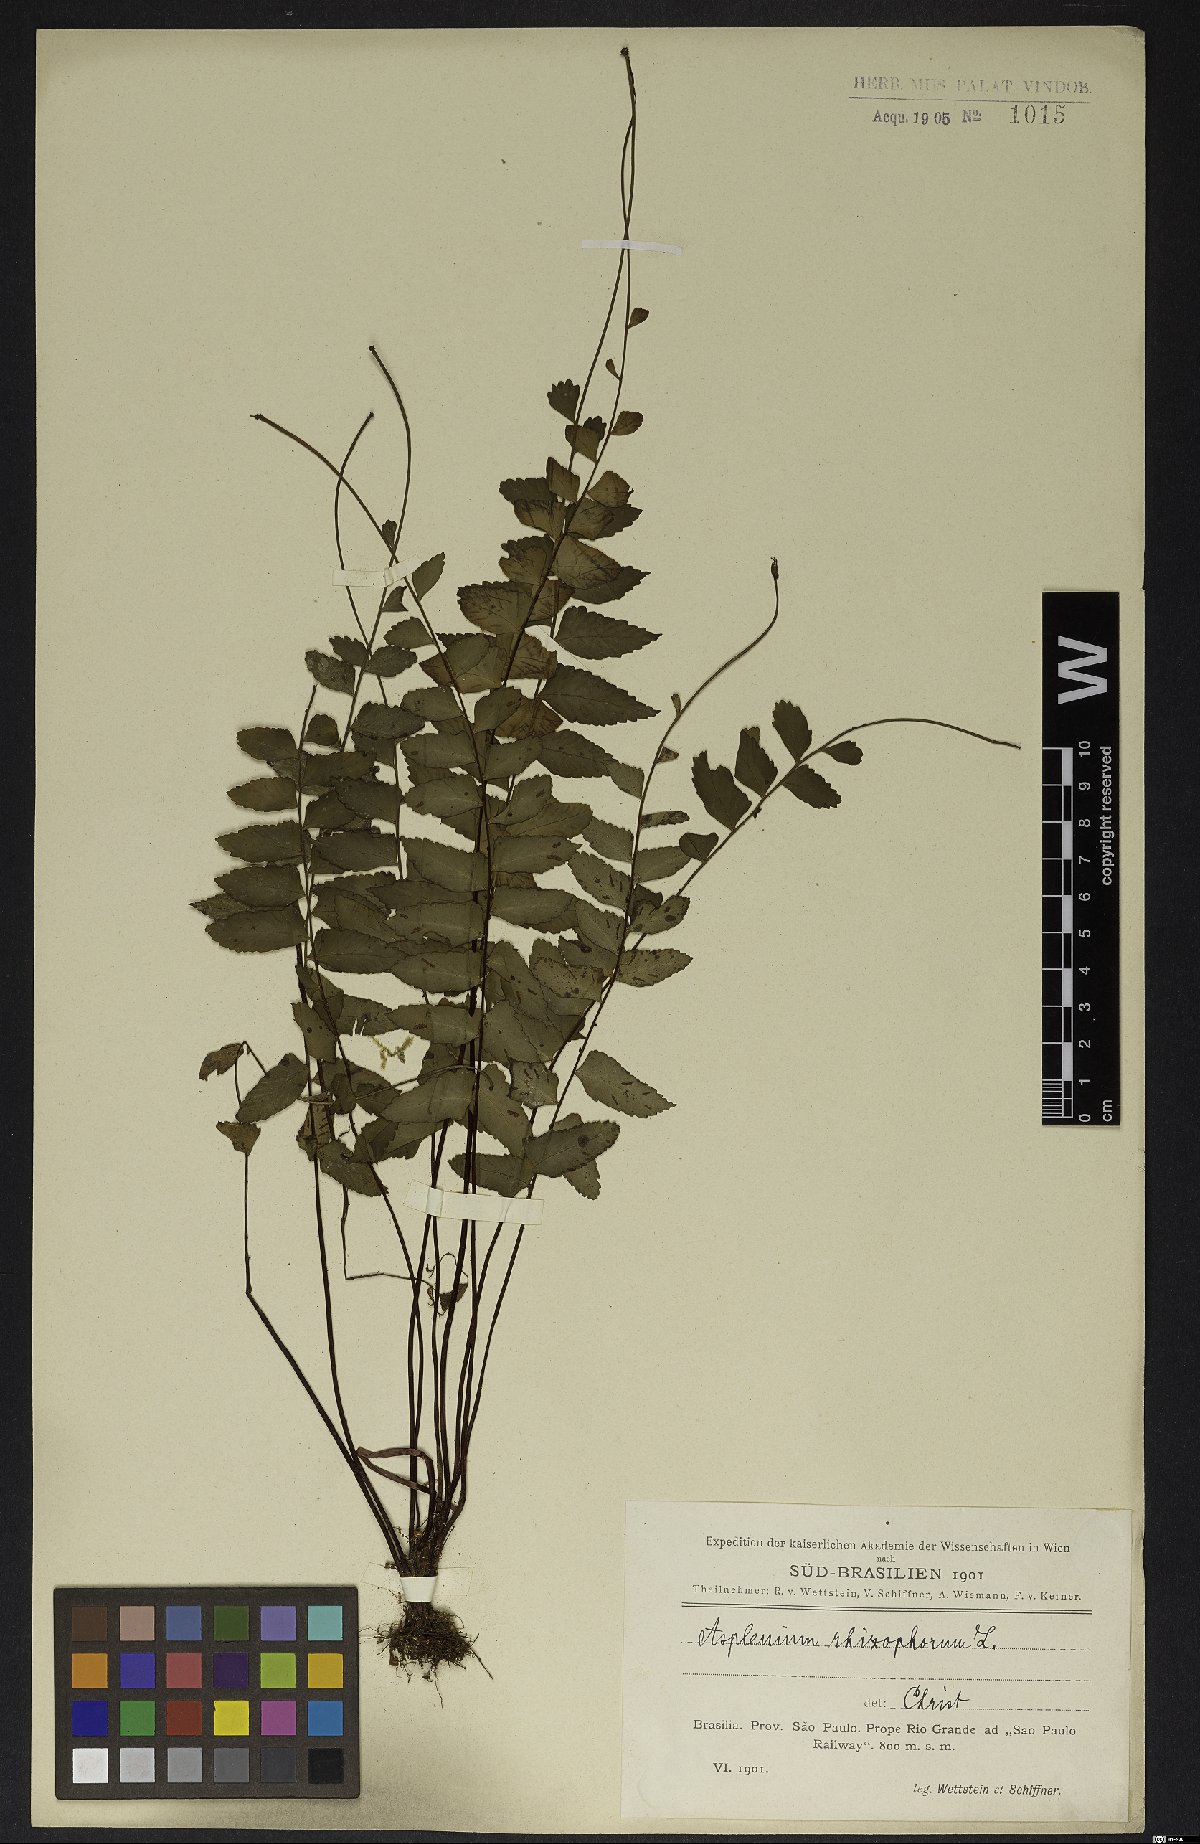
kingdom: Plantae
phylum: Tracheophyta
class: Polypodiopsida
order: Polypodiales
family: Aspleniaceae
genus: Asplenium
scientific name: Asplenium radicans
